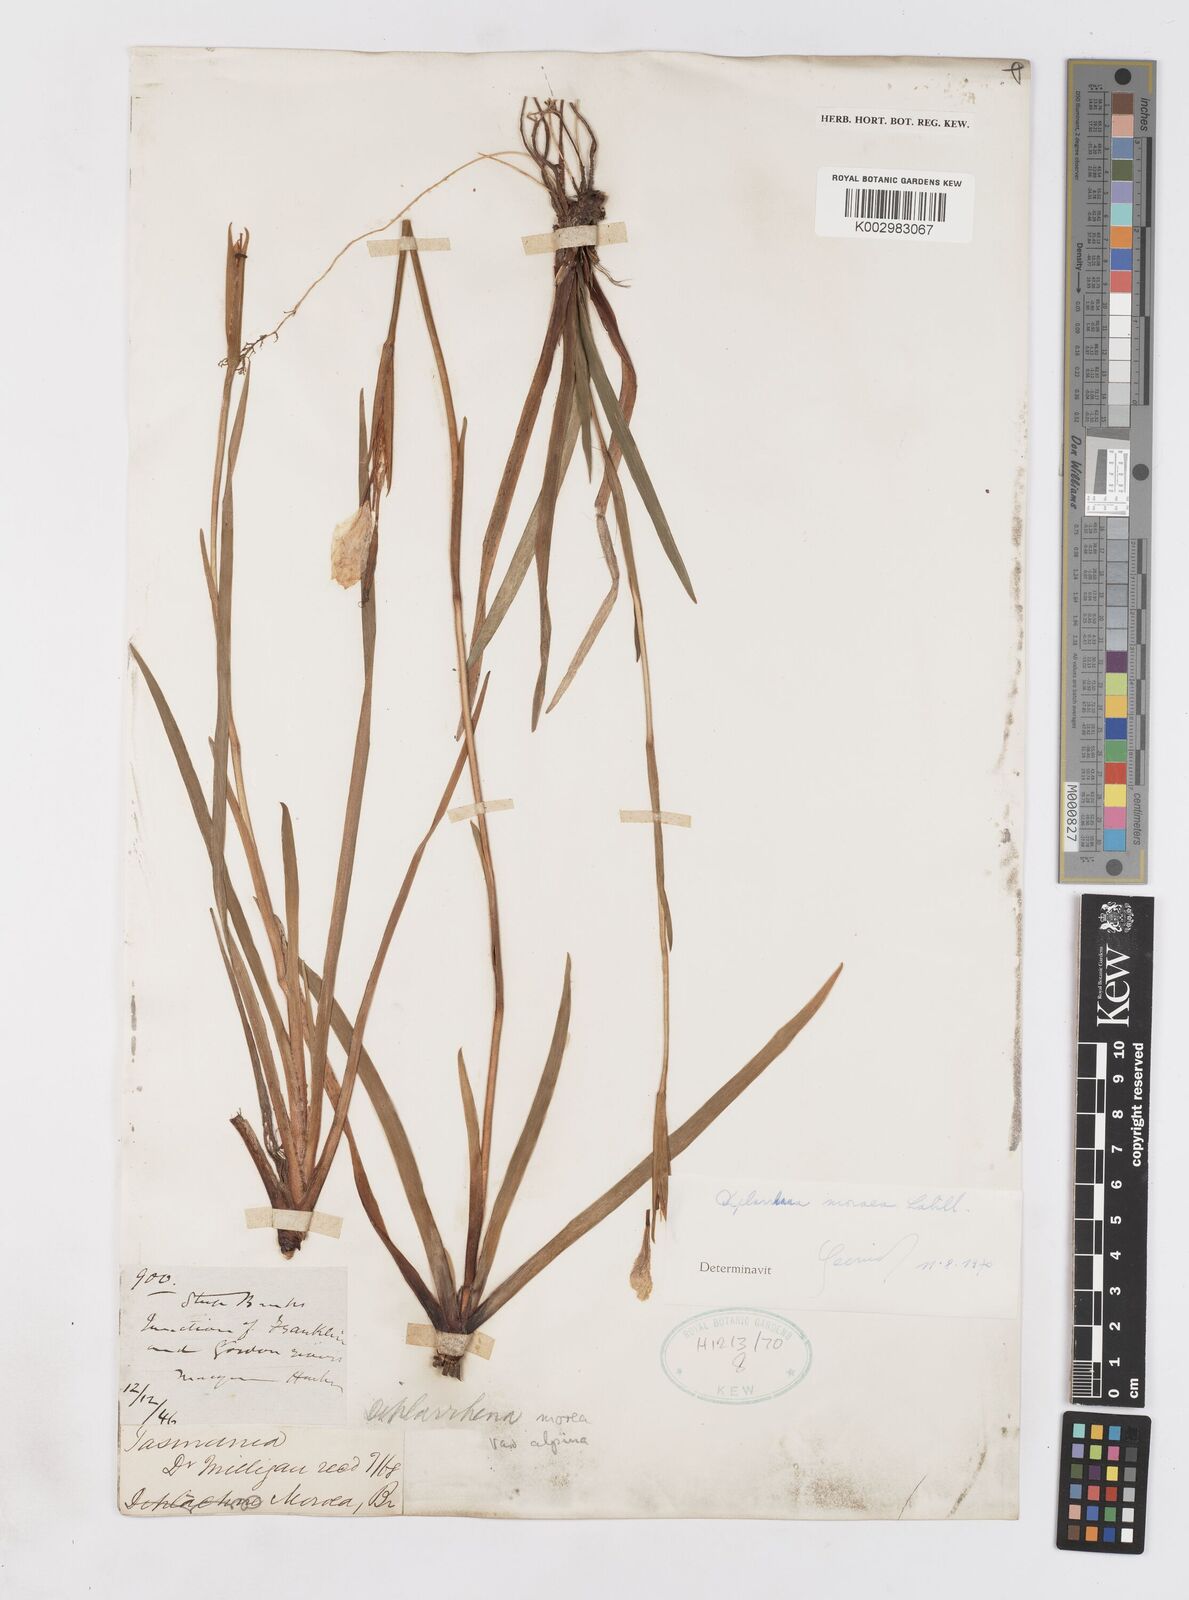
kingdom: Plantae
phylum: Tracheophyta
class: Liliopsida
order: Asparagales
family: Iridaceae
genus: Diplarrena
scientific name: Diplarrena moraea
